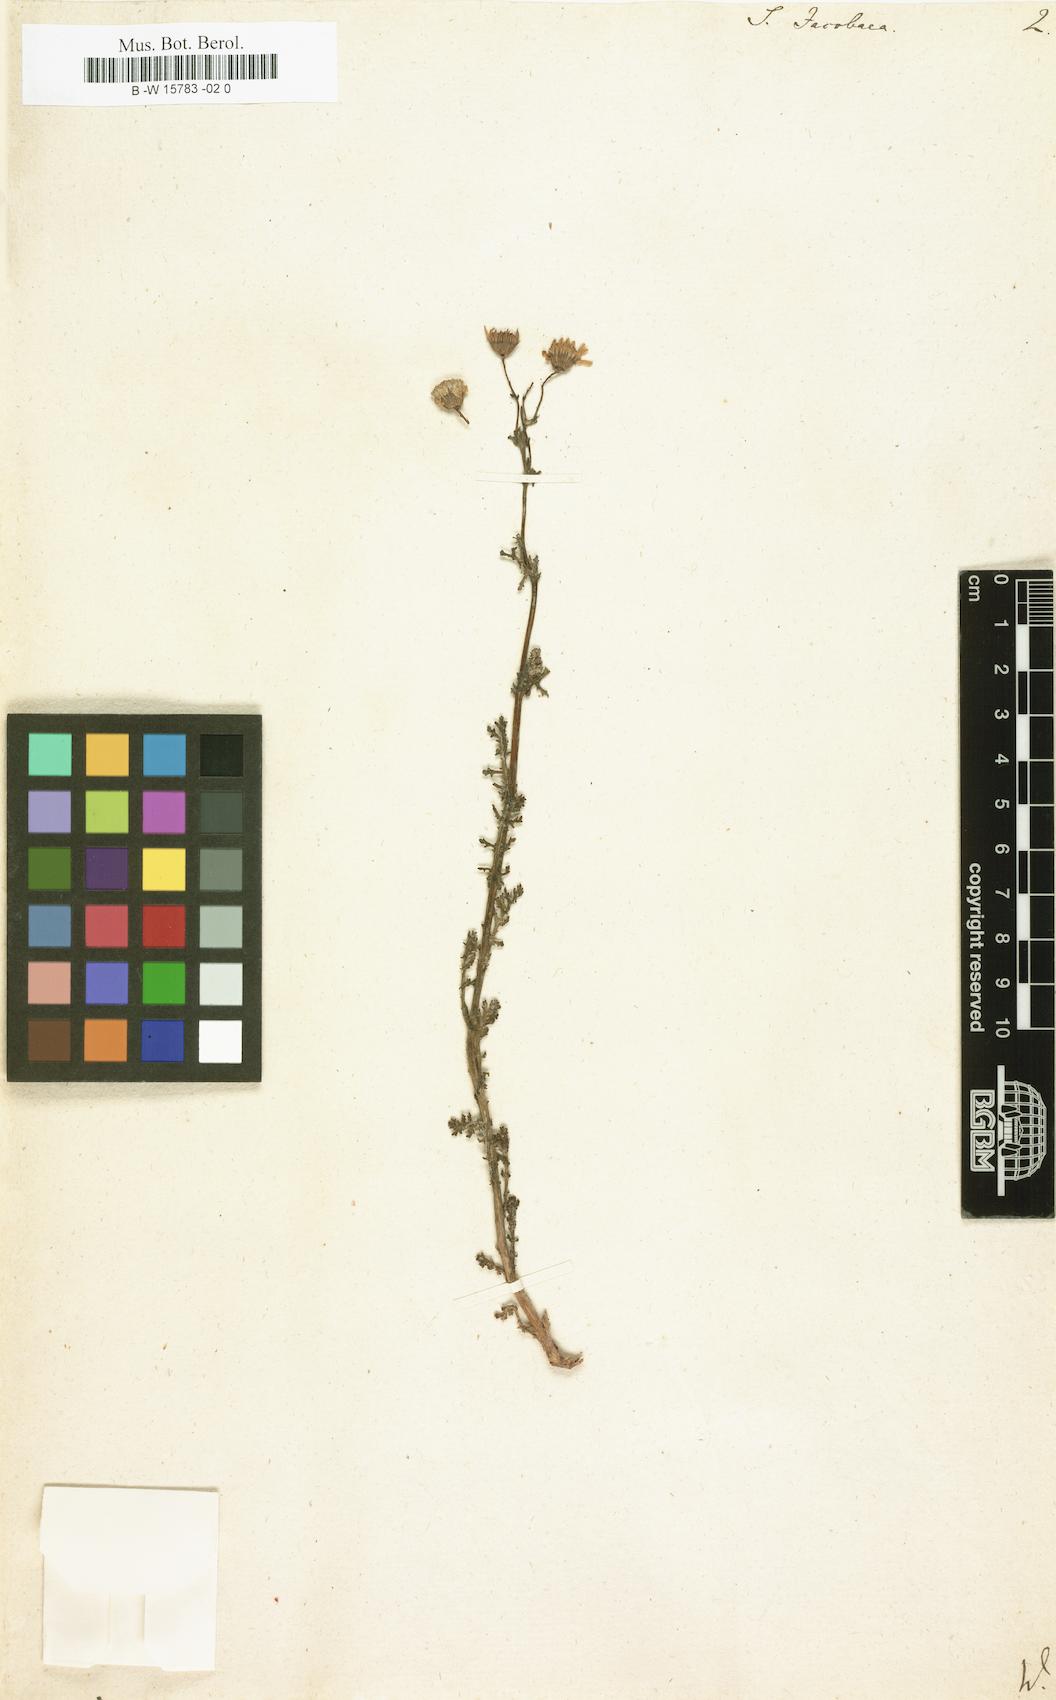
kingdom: Plantae
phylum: Tracheophyta
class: Magnoliopsida
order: Asterales
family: Asteraceae
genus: Senecio
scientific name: Senecio jacobaea
